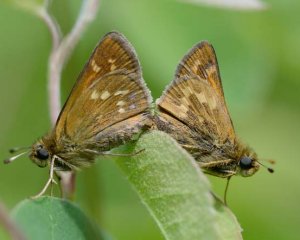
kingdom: Animalia
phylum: Arthropoda
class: Insecta
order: Lepidoptera
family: Hesperiidae
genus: Hesperia
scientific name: Hesperia sassacus
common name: Sassacus Skipper
